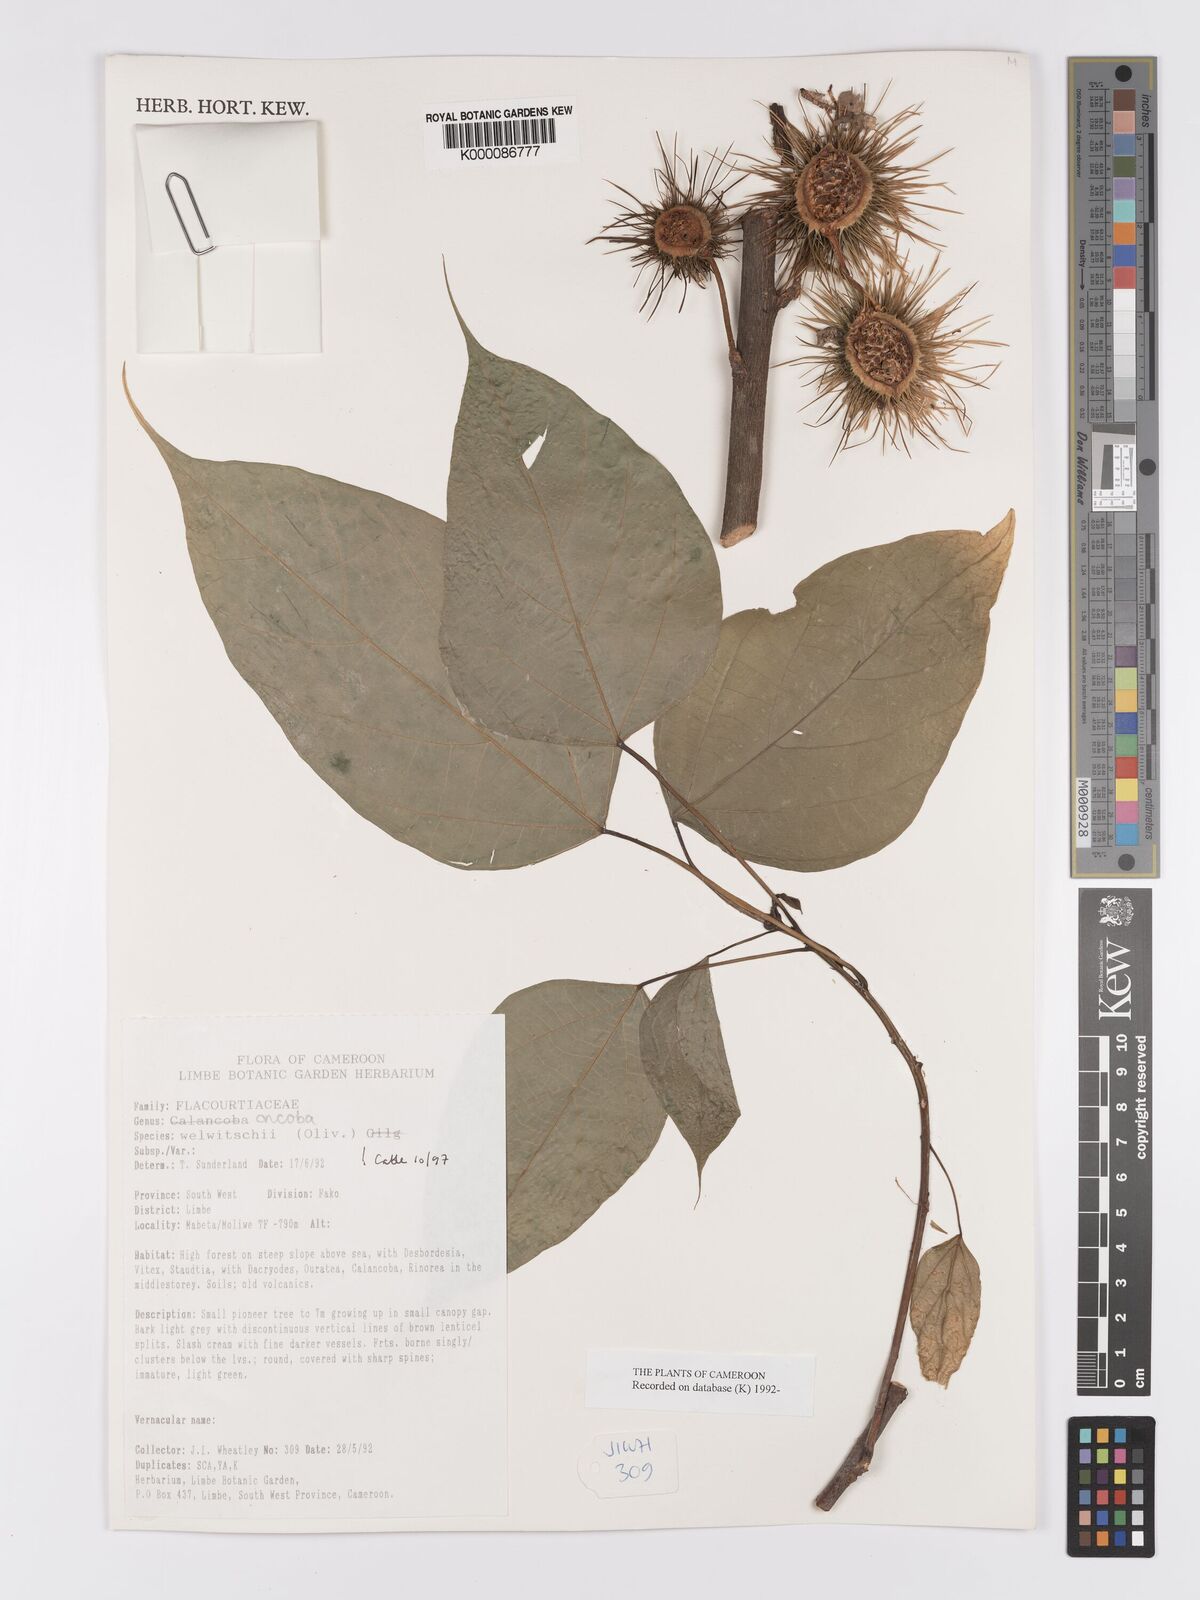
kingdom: Plantae
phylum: Tracheophyta
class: Magnoliopsida
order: Malpighiales
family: Achariaceae
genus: Caloncoba
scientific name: Caloncoba welwitschii
